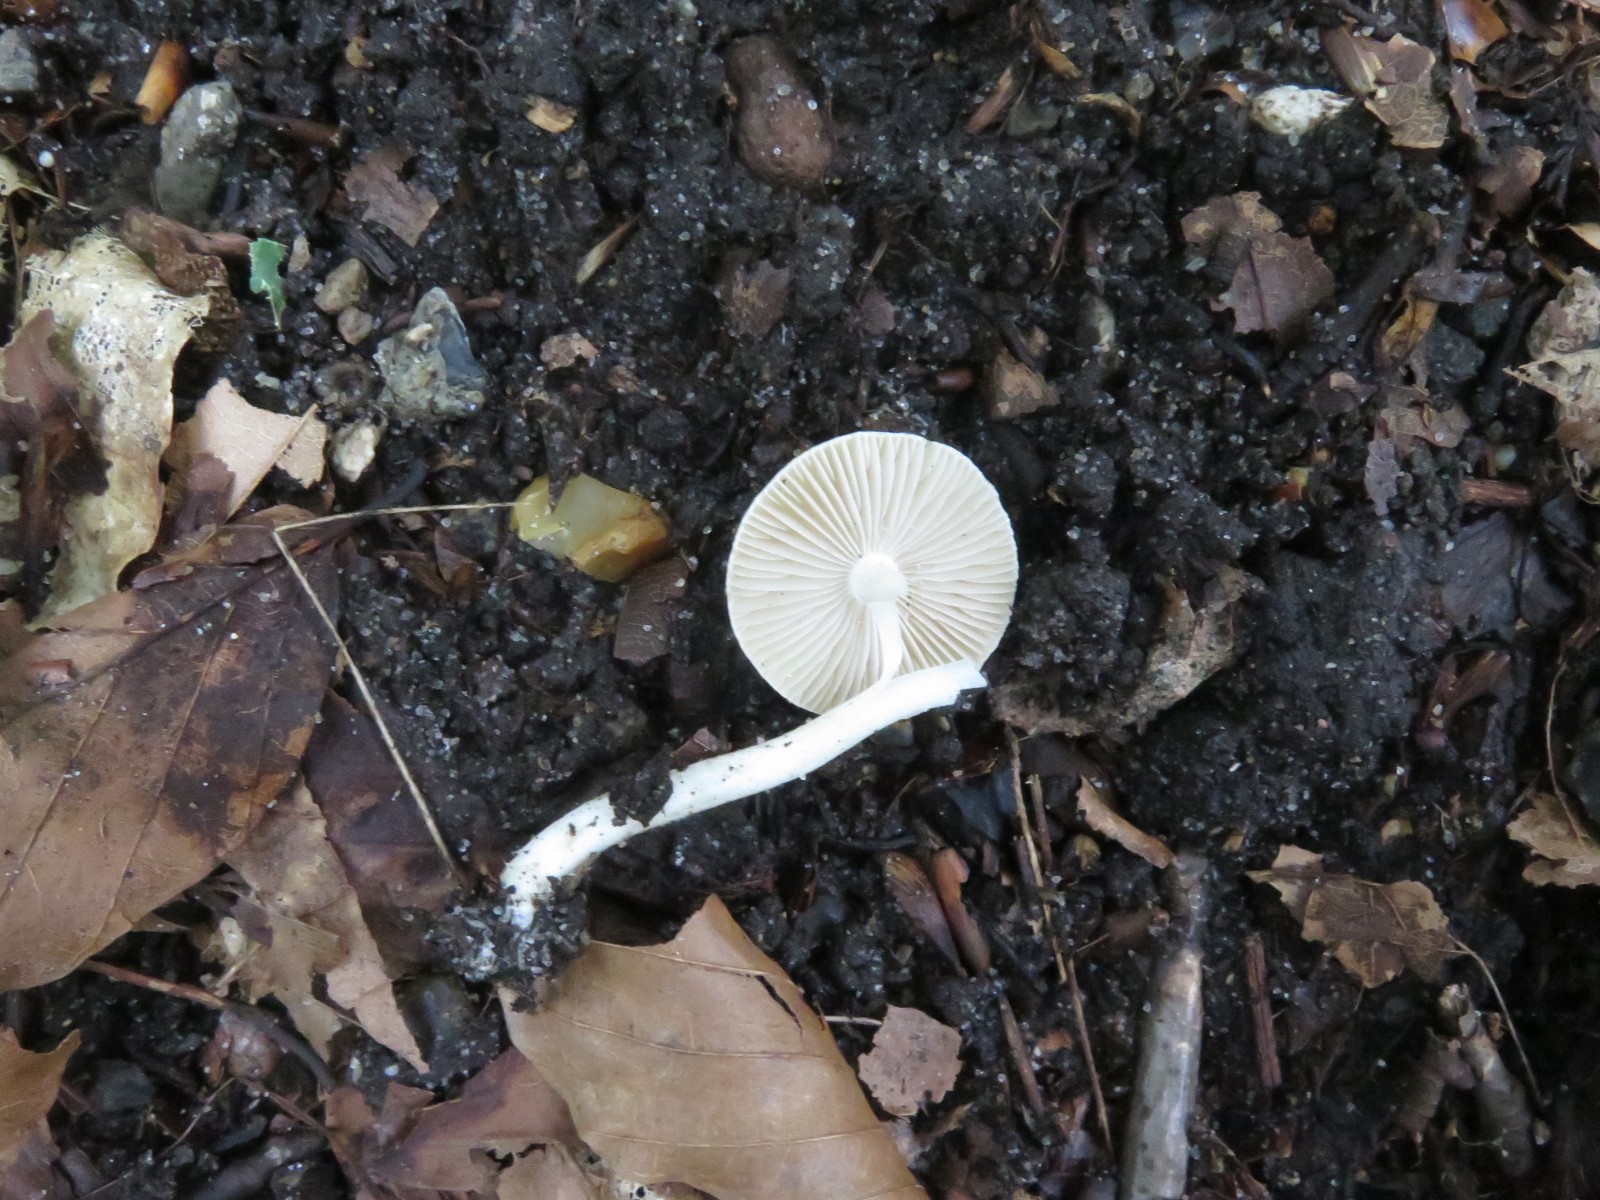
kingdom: Fungi
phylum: Basidiomycota
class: Agaricomycetes
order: Agaricales
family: Inocybaceae
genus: Inocybe
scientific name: Inocybe
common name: almindelig trævlhat
